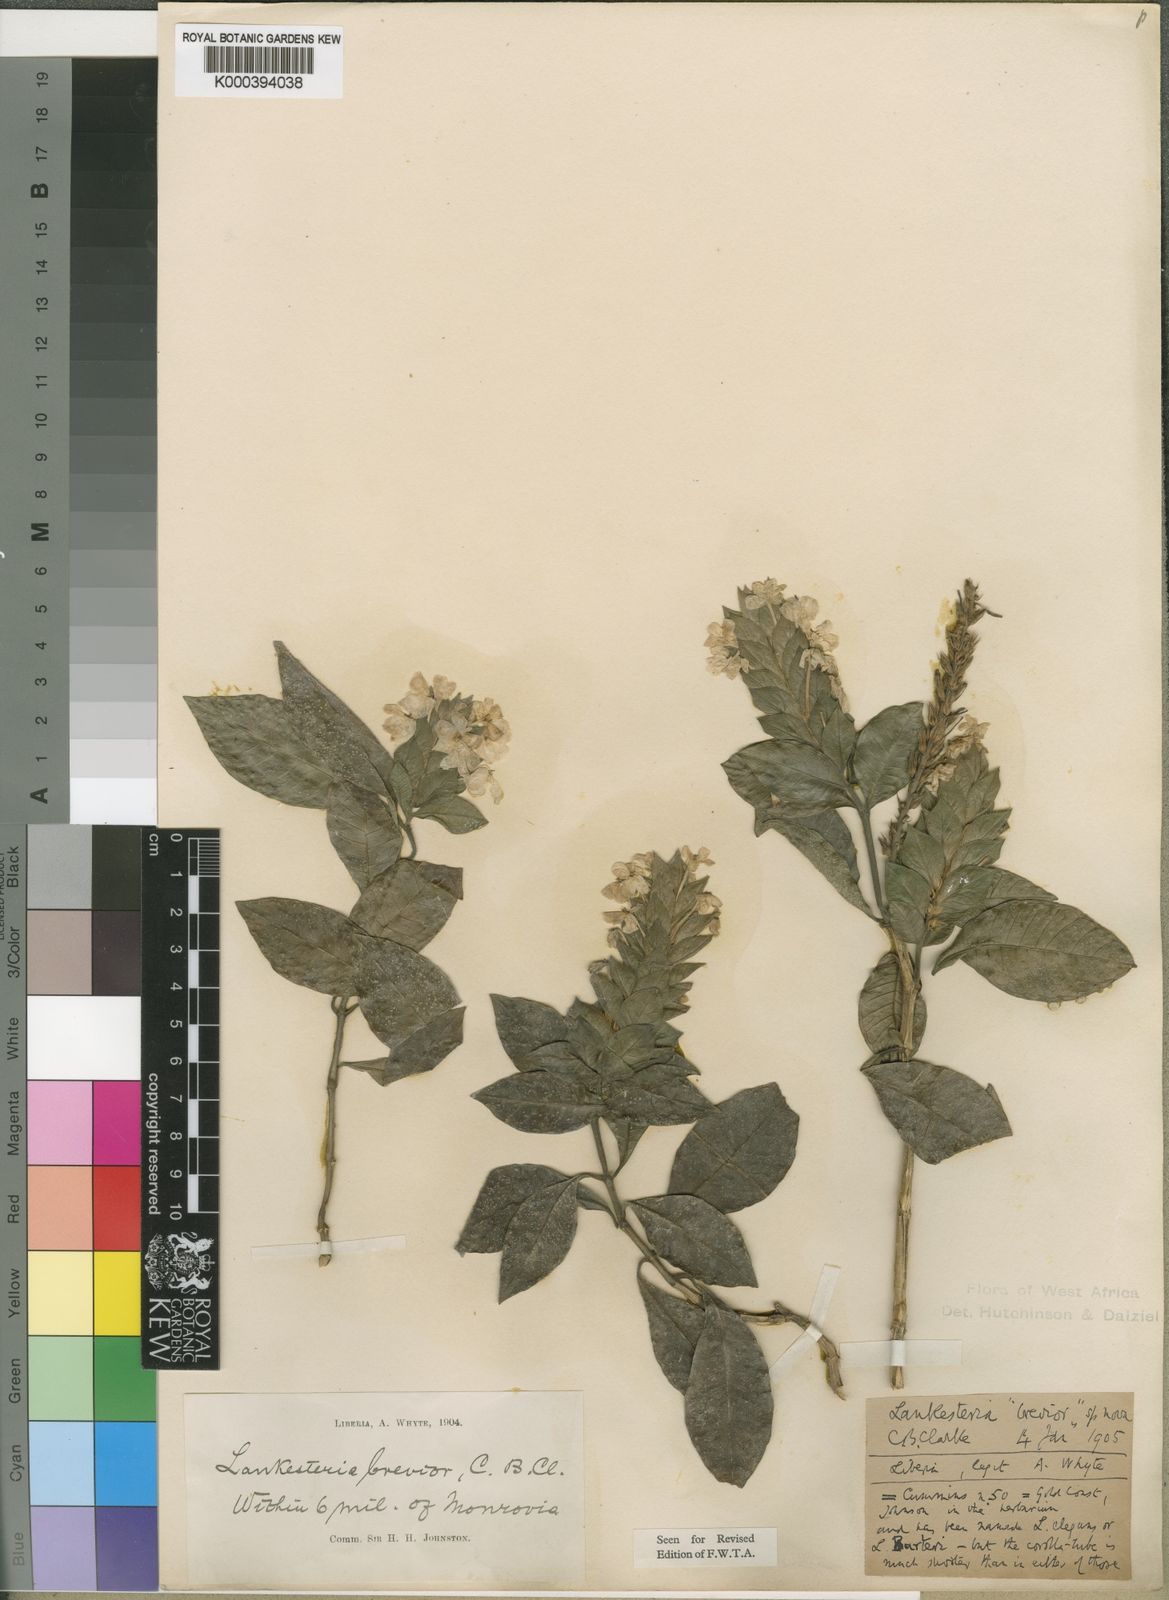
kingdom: Plantae
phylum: Tracheophyta
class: Magnoliopsida
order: Lamiales
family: Acanthaceae
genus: Lankesteria
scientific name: Lankesteria brevior
